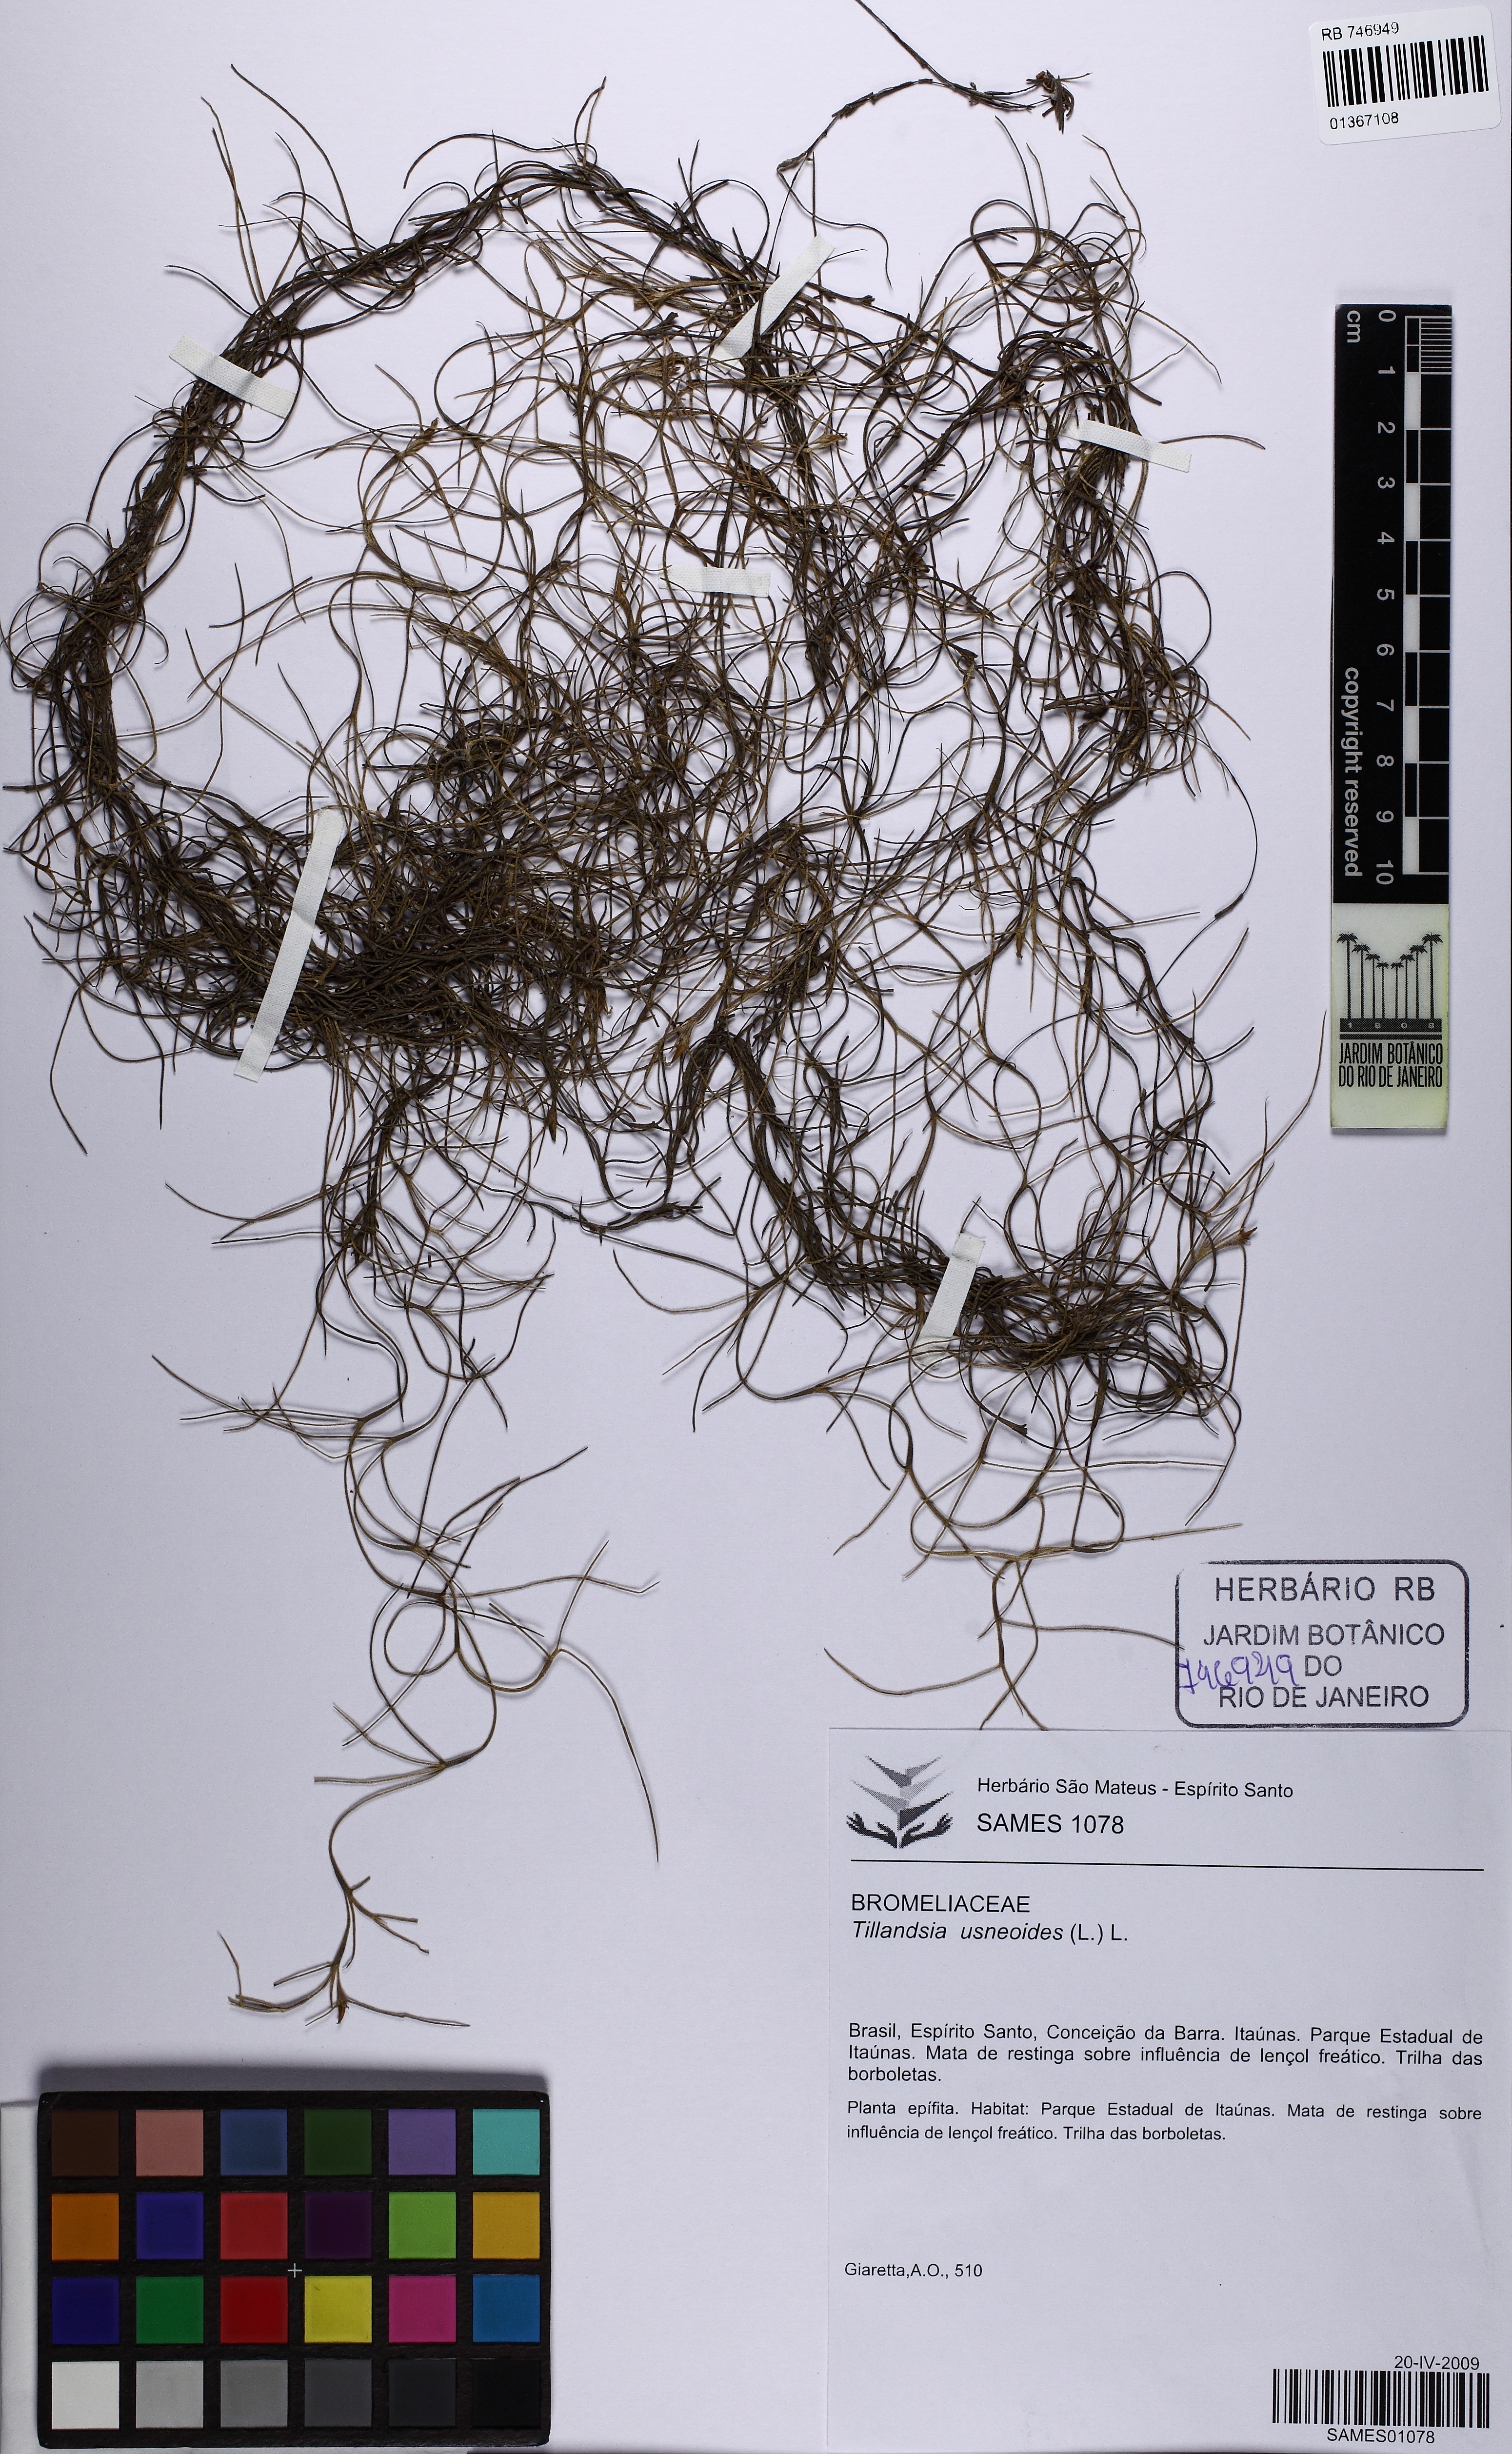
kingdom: Plantae
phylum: Tracheophyta
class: Liliopsida
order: Poales
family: Bromeliaceae
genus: Tillandsia
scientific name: Tillandsia usneoides
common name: Spanish moss
